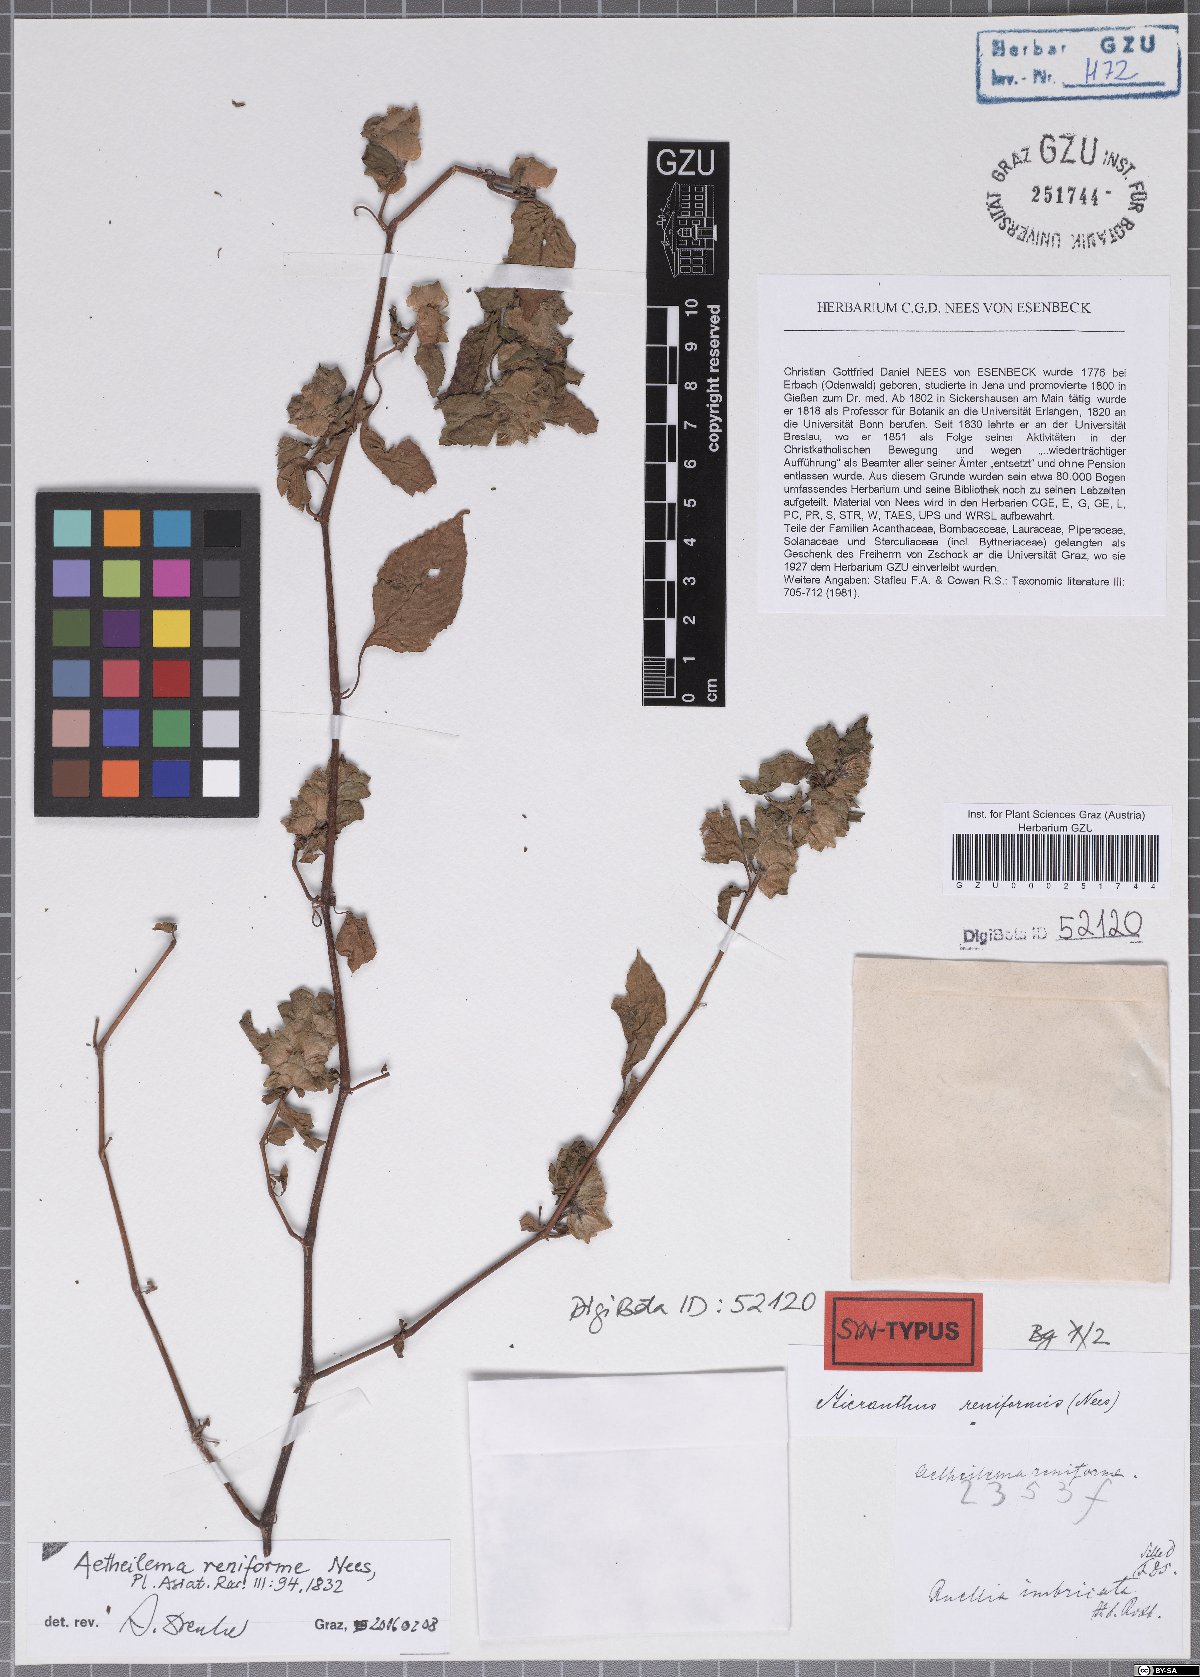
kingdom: Plantae
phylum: Tracheophyta
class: Magnoliopsida
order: Lamiales
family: Acanthaceae
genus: Phaulopsis
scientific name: Phaulopsis dorsiflora
